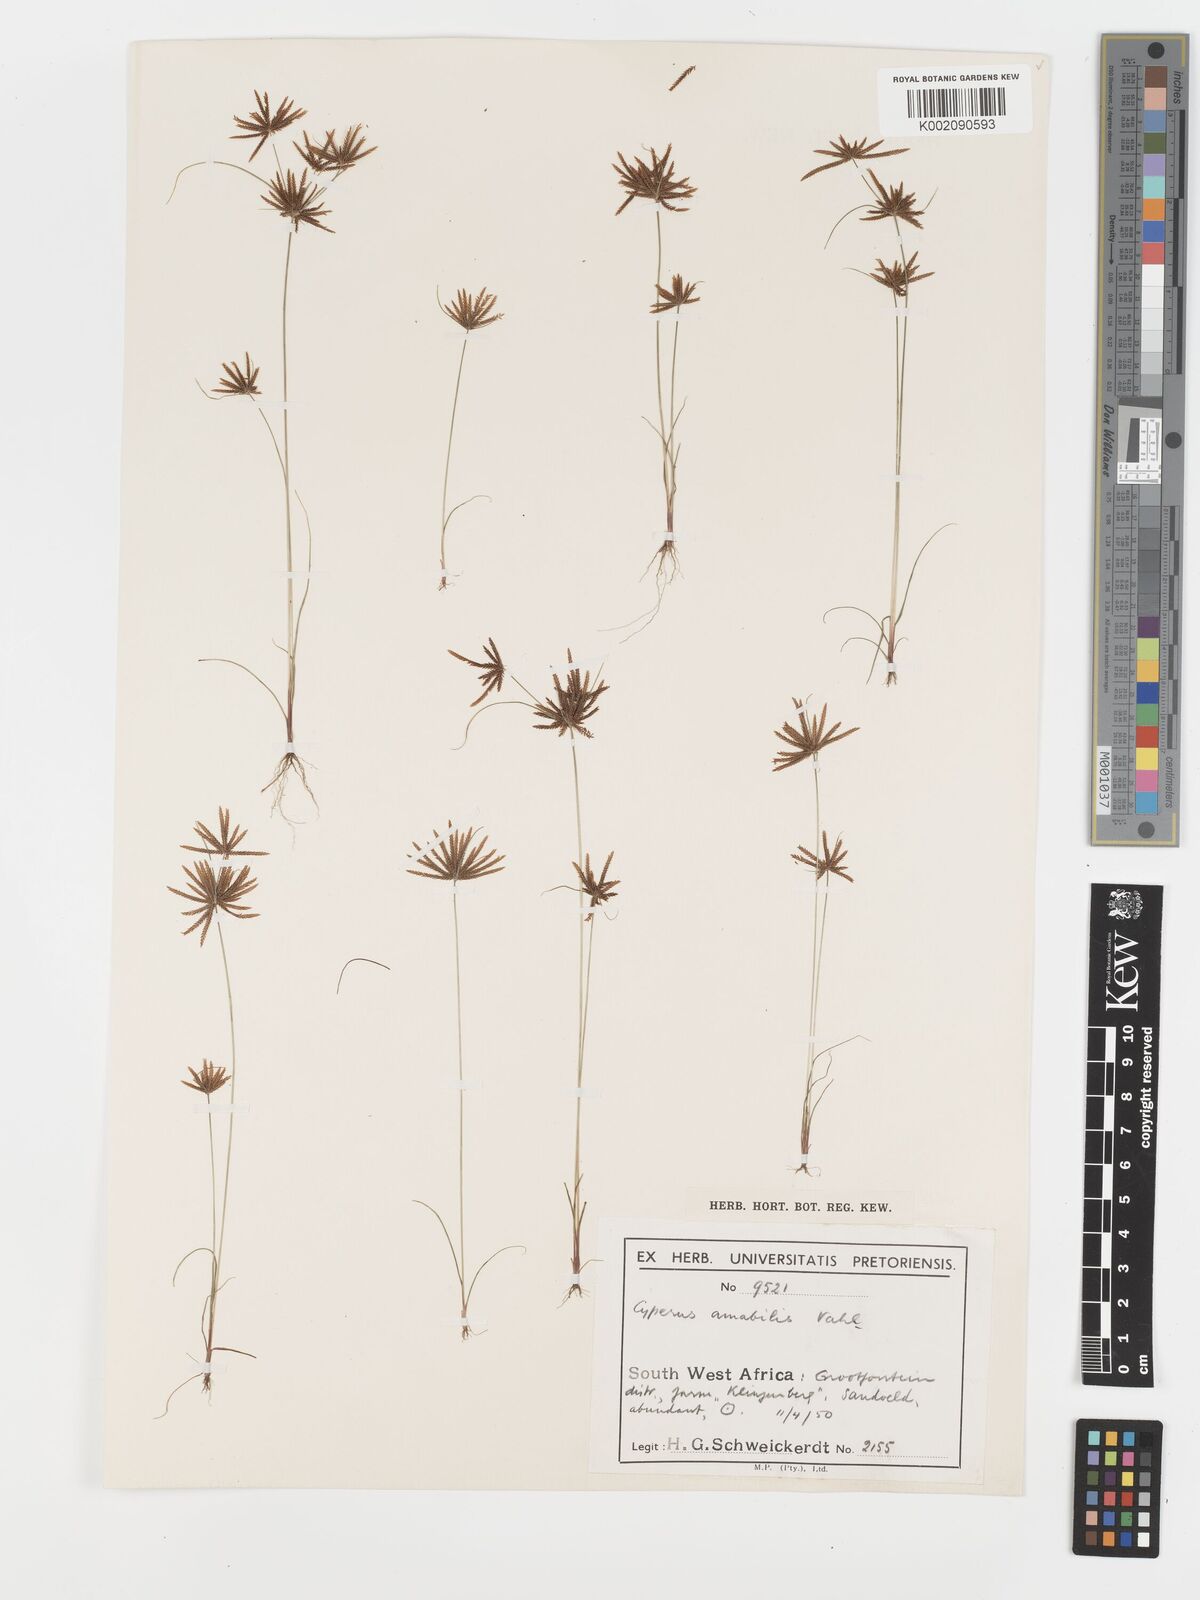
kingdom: Plantae
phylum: Tracheophyta
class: Liliopsida
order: Poales
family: Cyperaceae
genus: Cyperus
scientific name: Cyperus amabilis
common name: Foothill flat sedge
